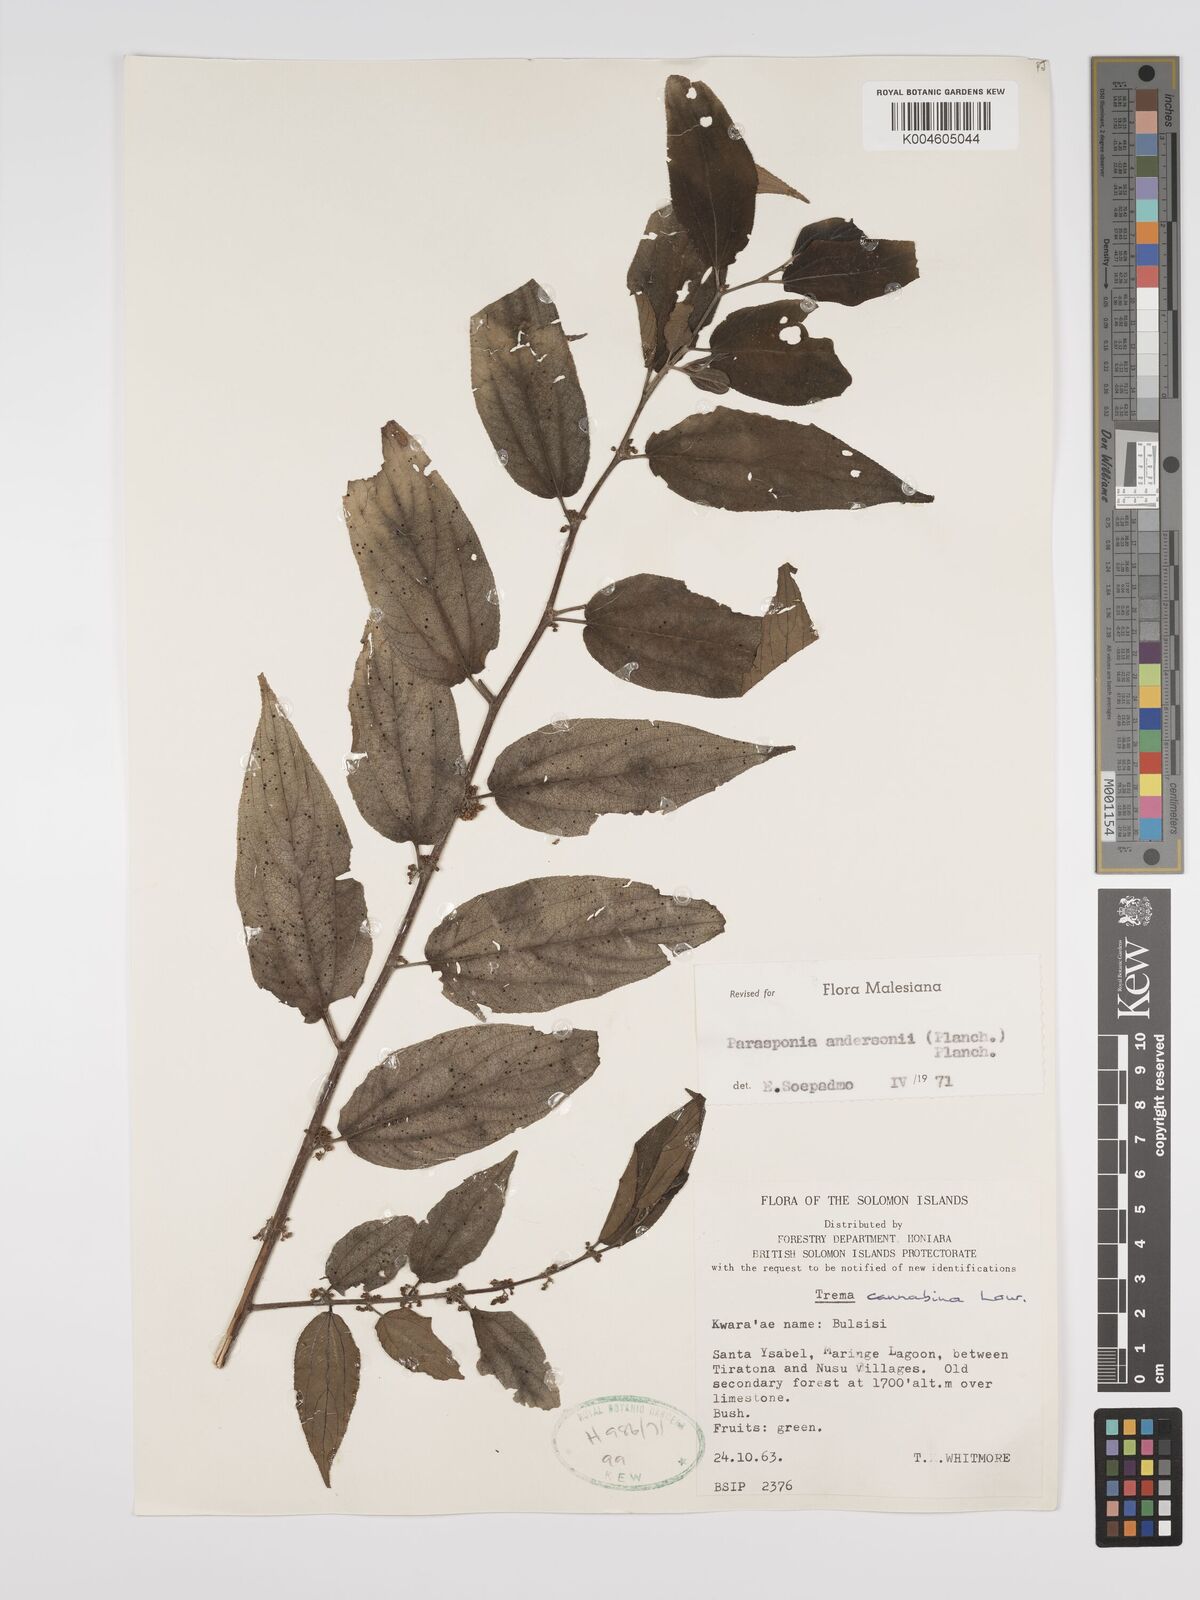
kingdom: Plantae
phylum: Tracheophyta
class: Magnoliopsida
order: Rosales
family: Cannabaceae
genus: Trema
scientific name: Trema andersonii
